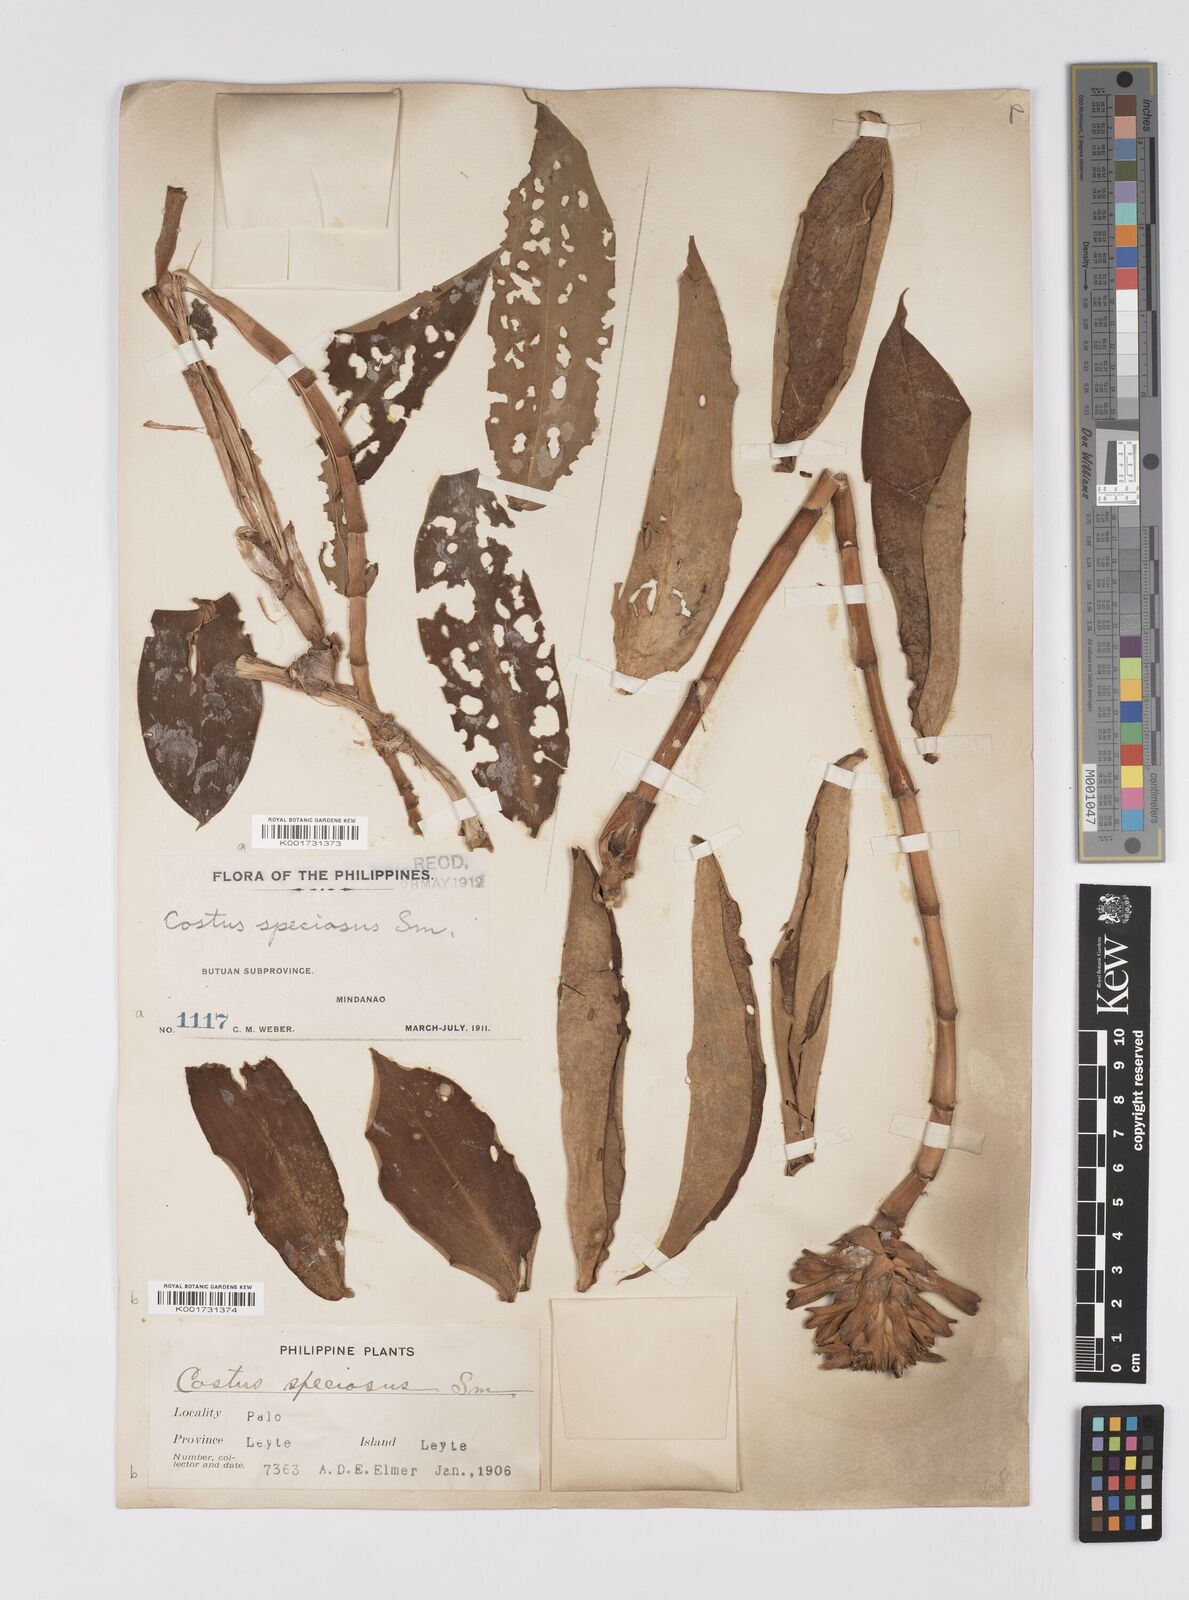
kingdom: Plantae
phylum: Tracheophyta
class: Liliopsida
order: Zingiberales
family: Costaceae
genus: Hellenia
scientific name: Hellenia speciosa
